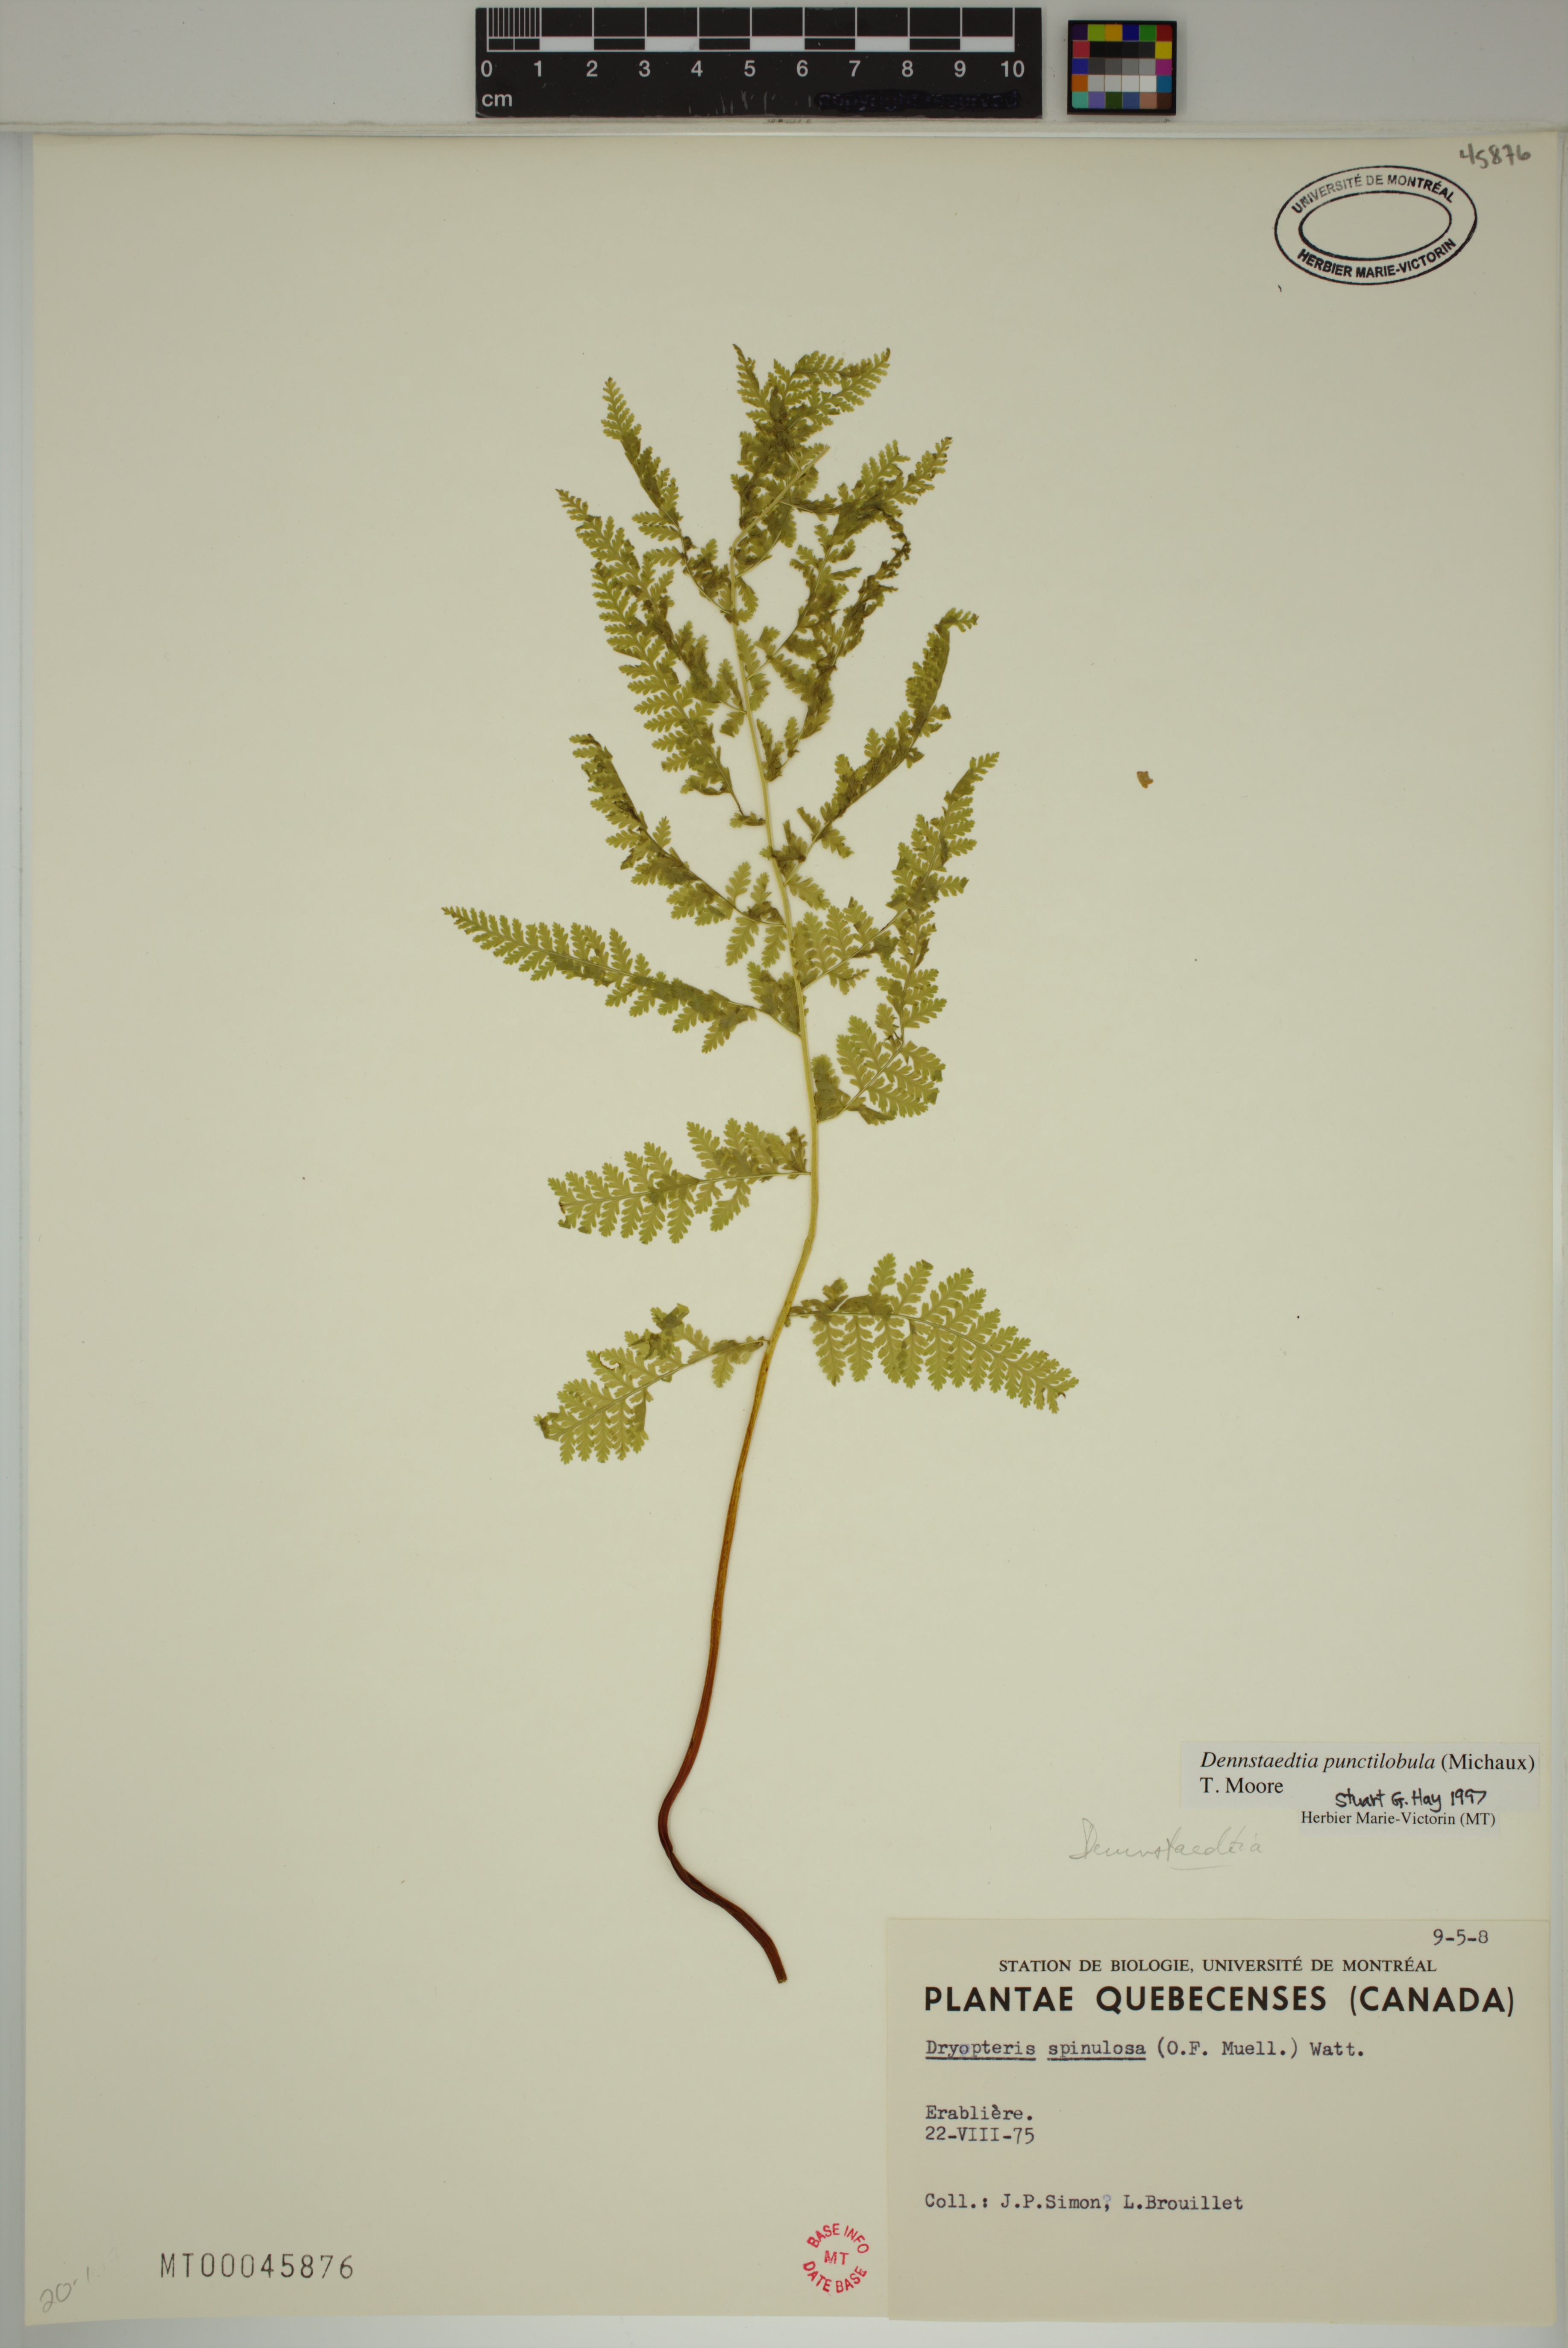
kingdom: Plantae
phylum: Tracheophyta
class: Polypodiopsida
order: Polypodiales
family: Dennstaedtiaceae
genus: Sitobolium
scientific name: Sitobolium punctilobum
